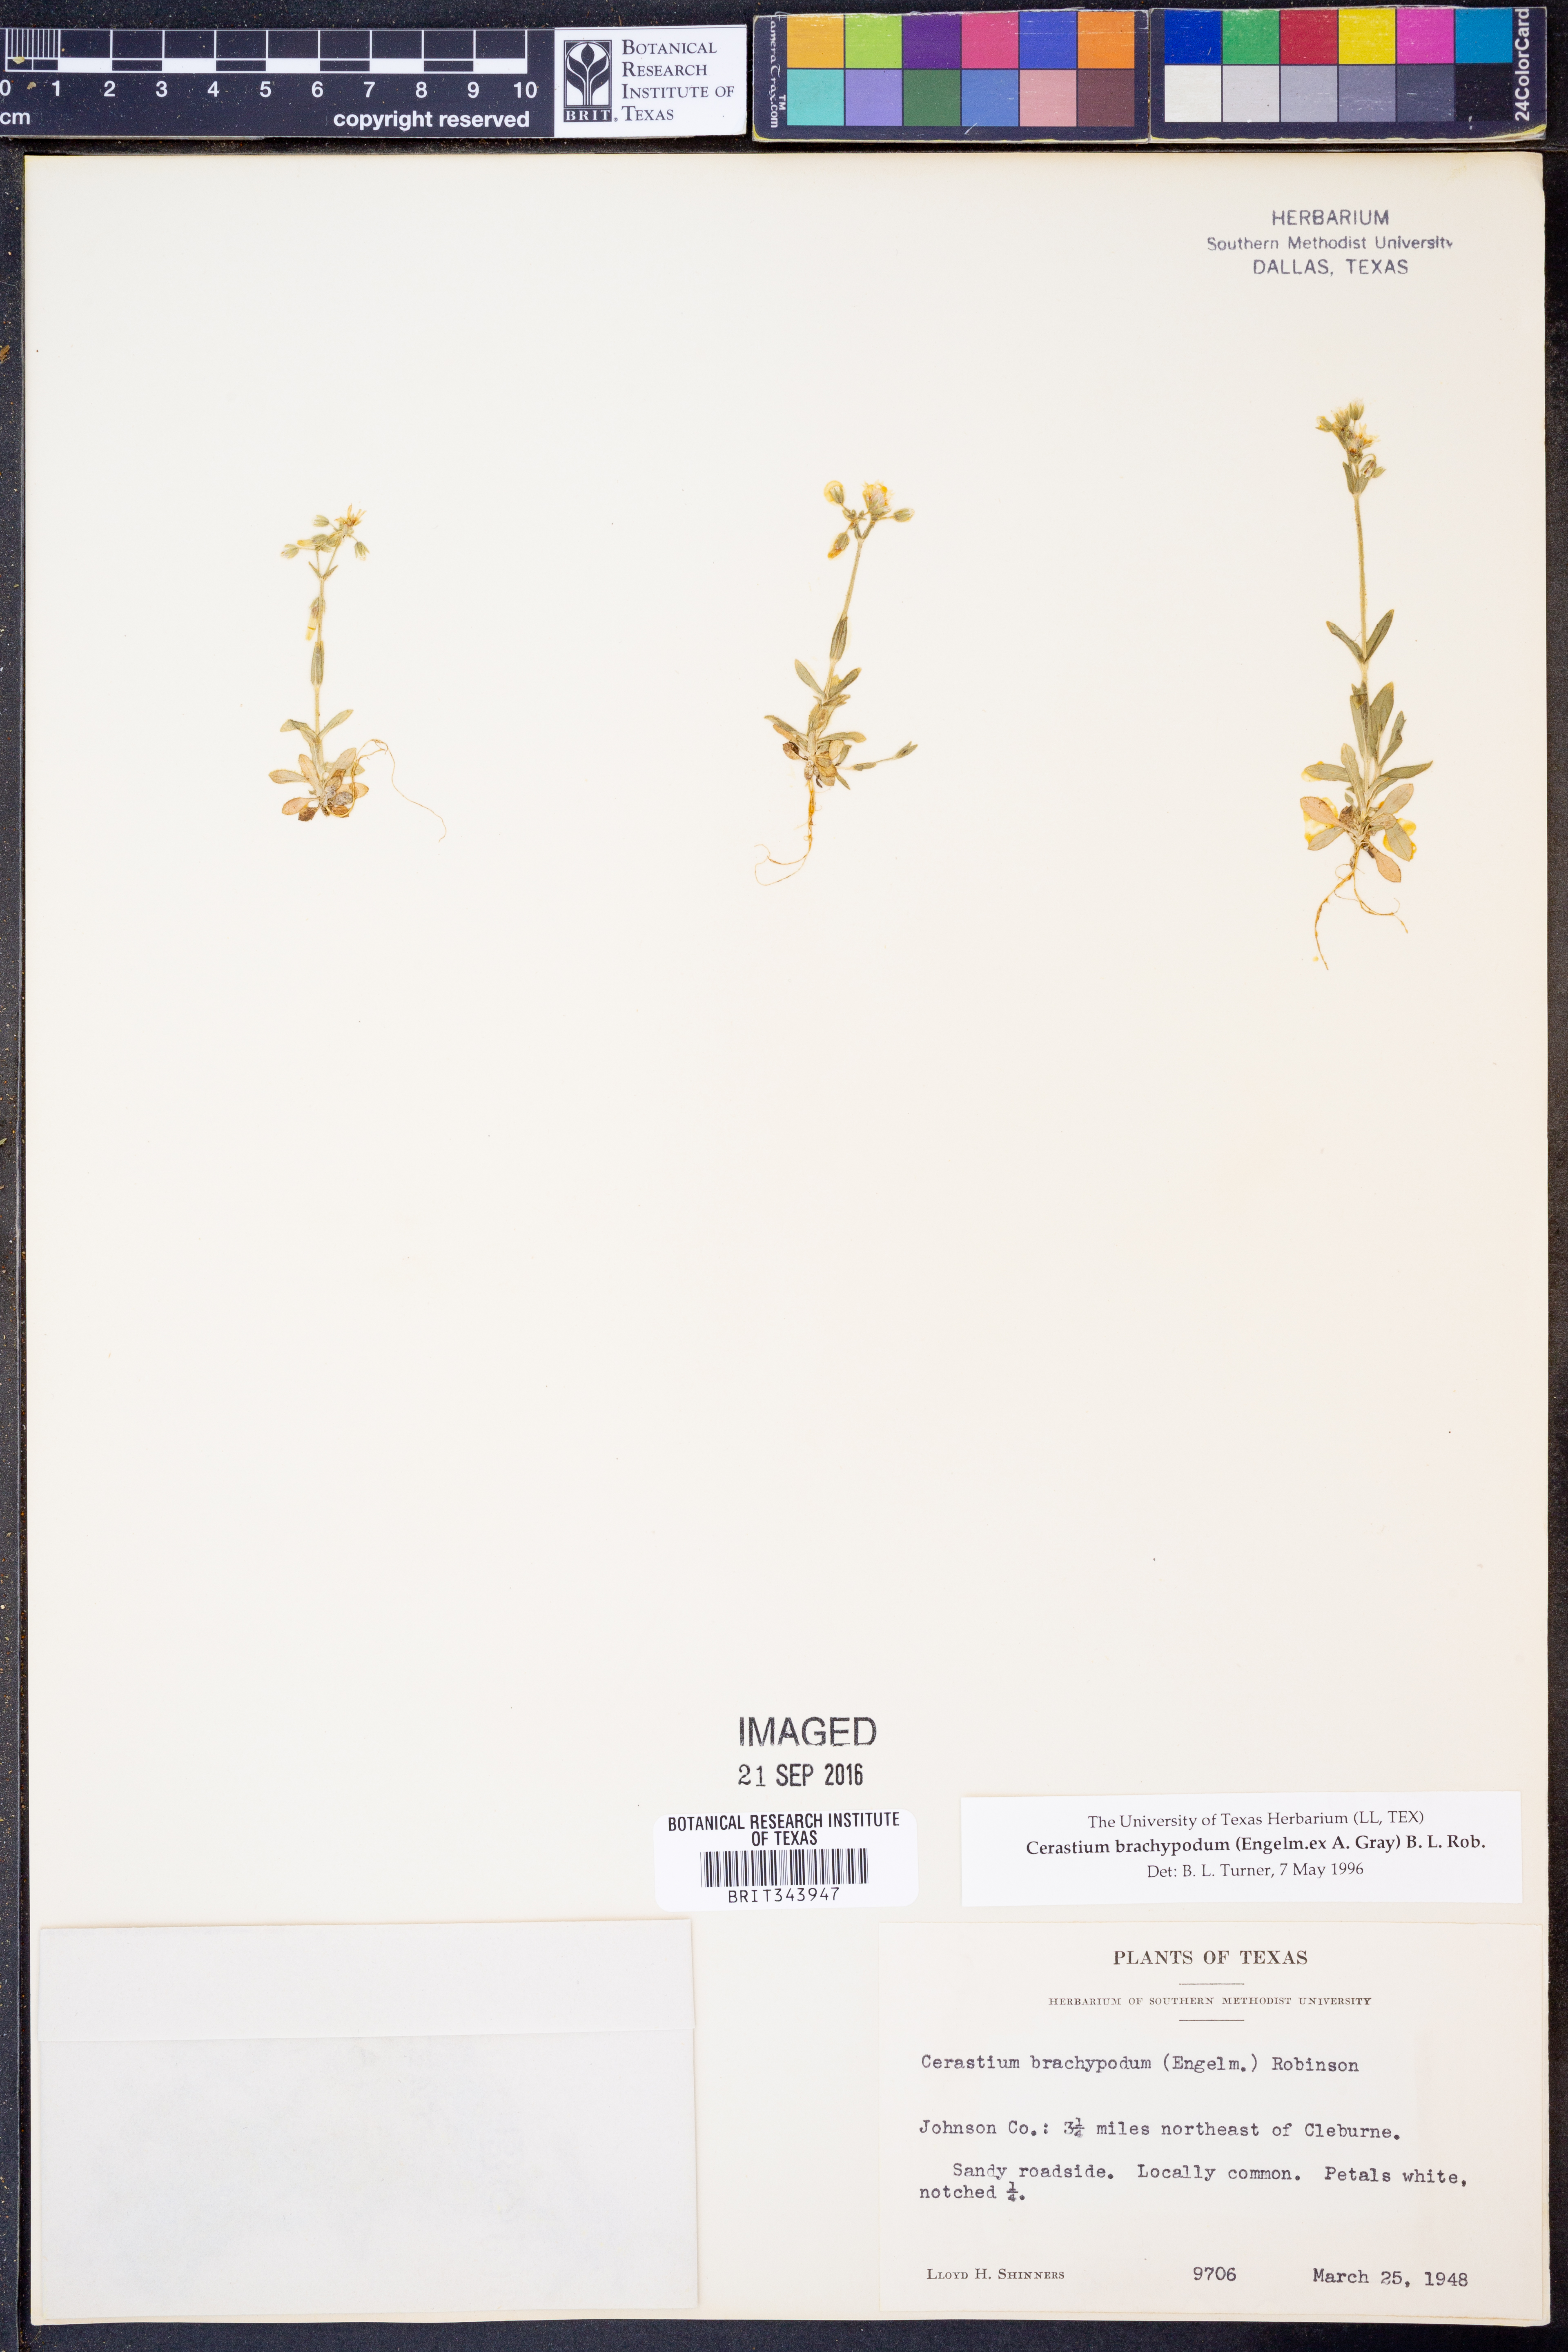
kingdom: Plantae
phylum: Tracheophyta
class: Magnoliopsida
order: Caryophyllales
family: Caryophyllaceae
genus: Cerastium
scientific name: Cerastium brachypodum
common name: Short-pedicelled nodding chickweed
